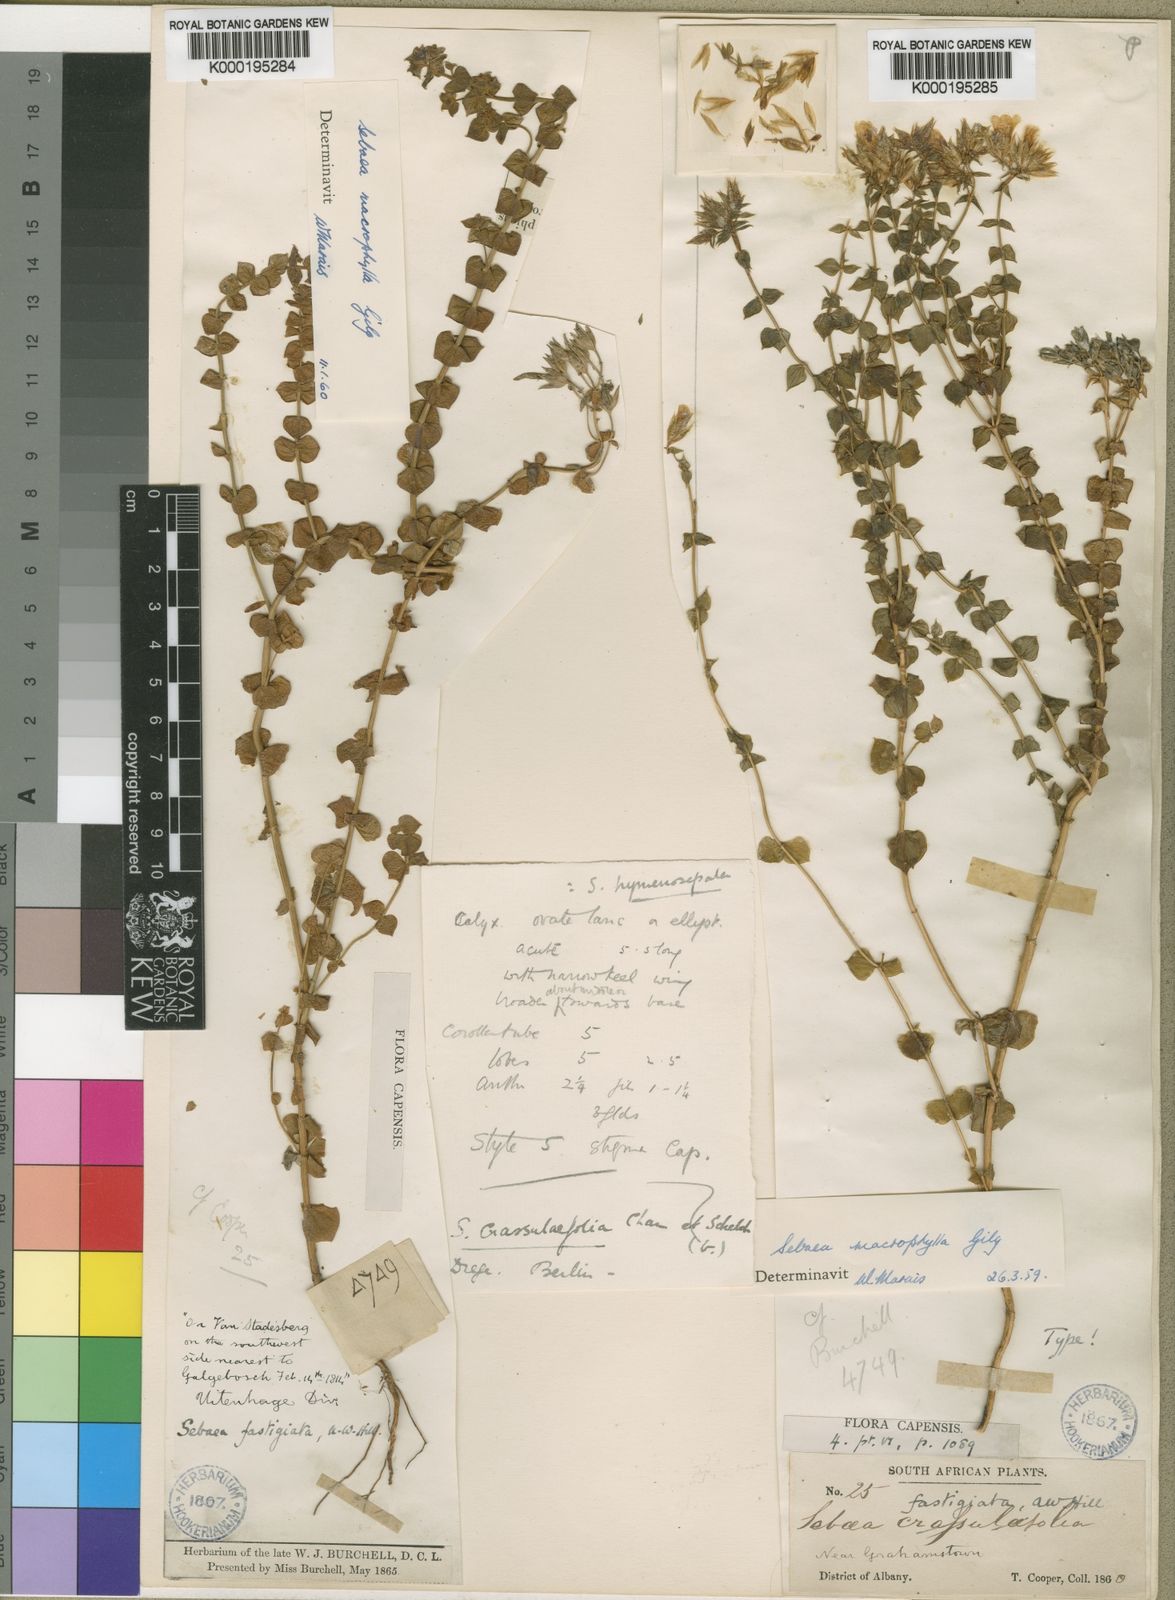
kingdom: Plantae
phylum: Tracheophyta
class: Magnoliopsida
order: Gentianales
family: Gentianaceae
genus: Sebaea
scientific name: Sebaea macrophylla
